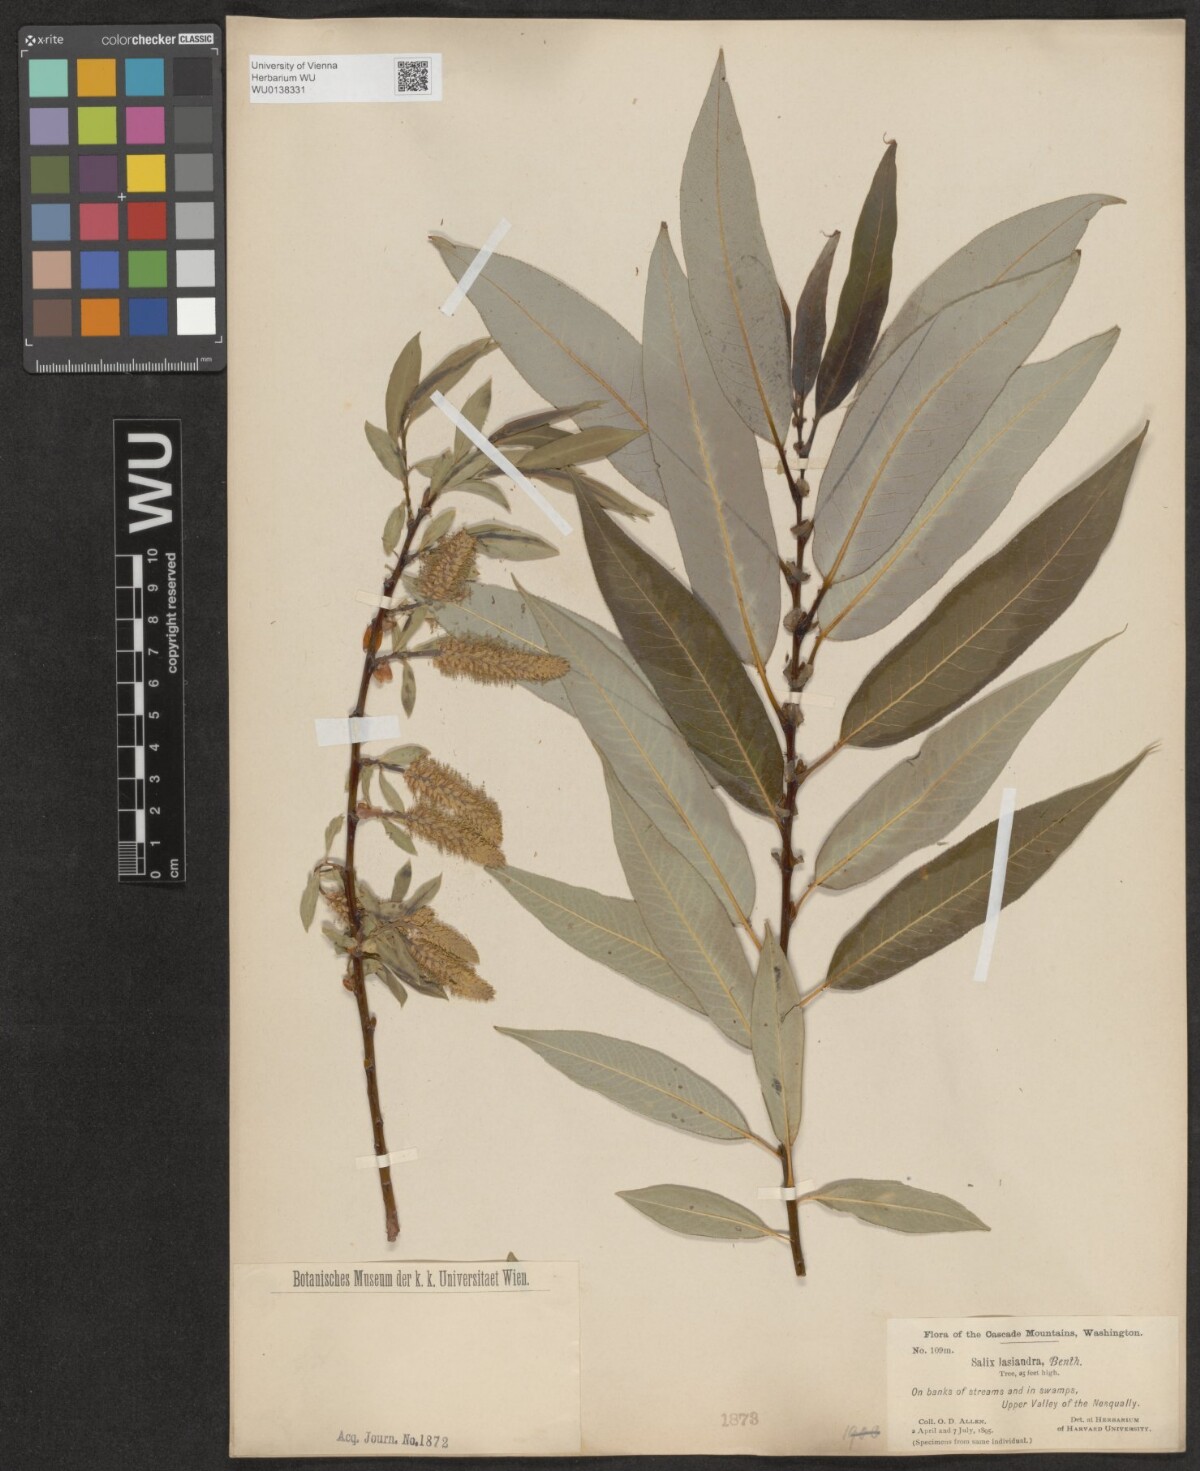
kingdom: Plantae
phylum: Tracheophyta
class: Magnoliopsida
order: Malpighiales
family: Salicaceae
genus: Salix
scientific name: Salix lucida
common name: Shining willow
